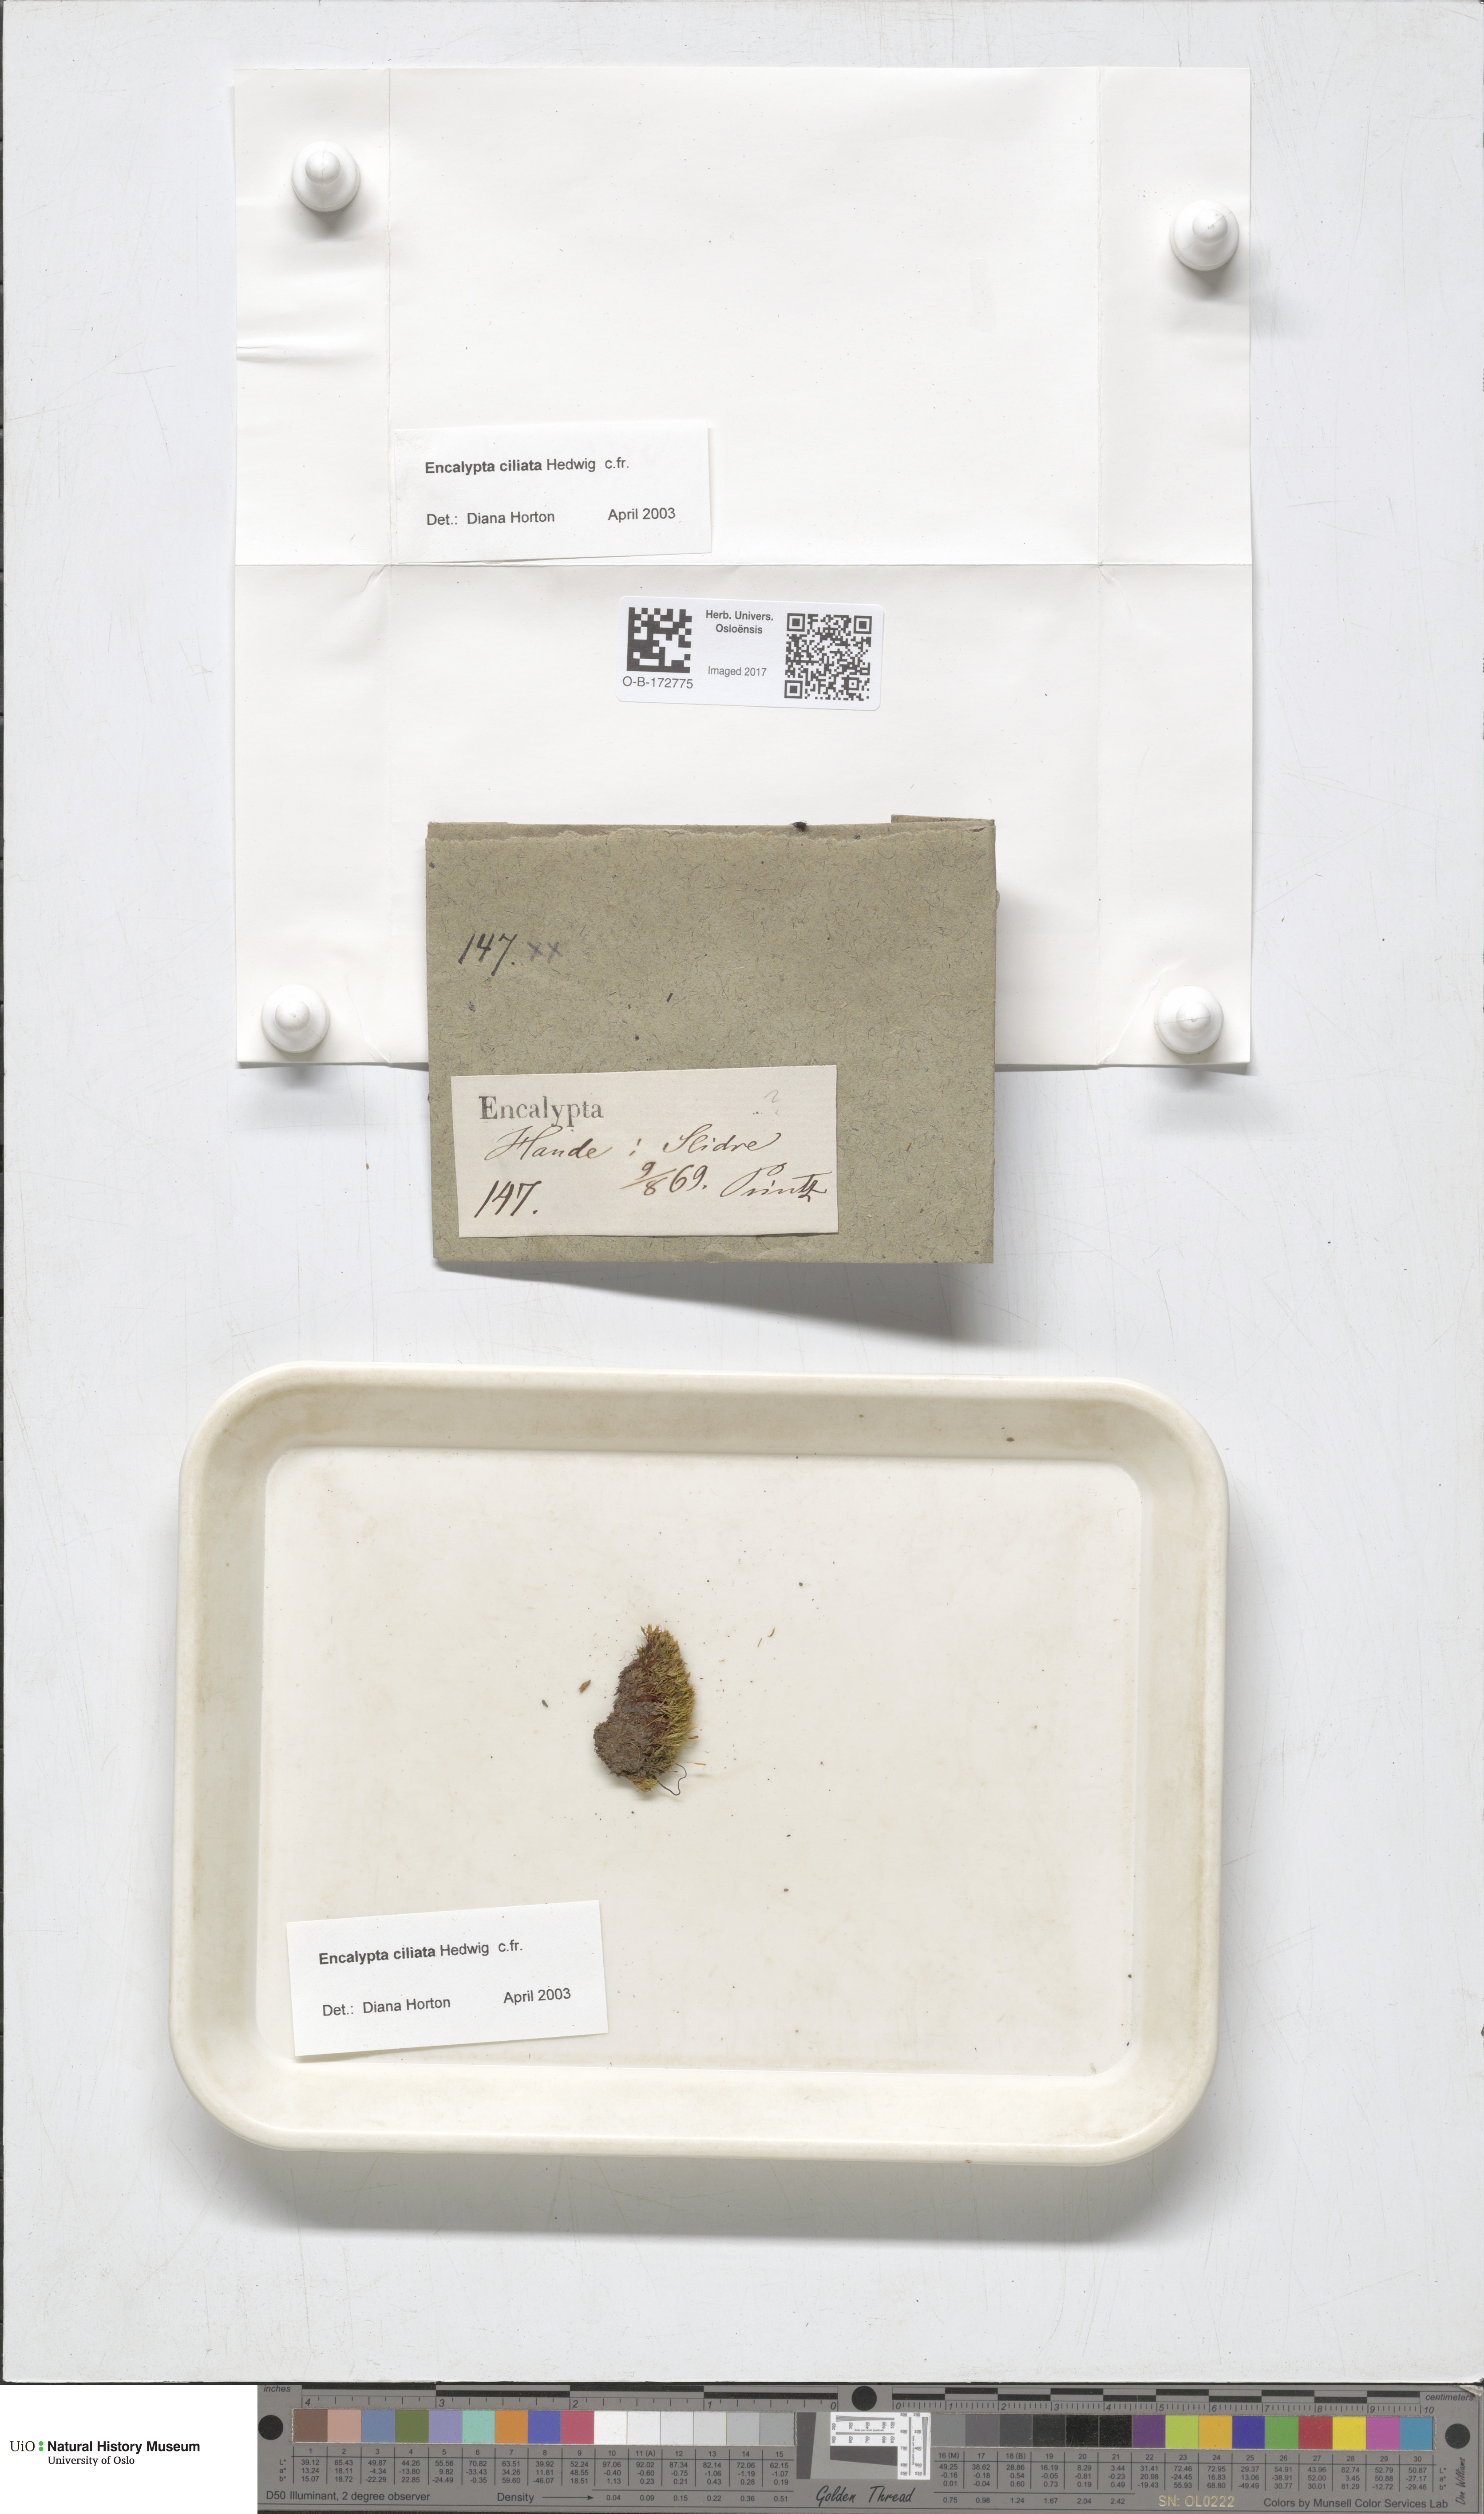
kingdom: Plantae
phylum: Bryophyta
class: Bryopsida
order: Encalyptales
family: Encalyptaceae
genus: Encalypta
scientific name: Encalypta ciliata
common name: Fringed extinguisher-moss
